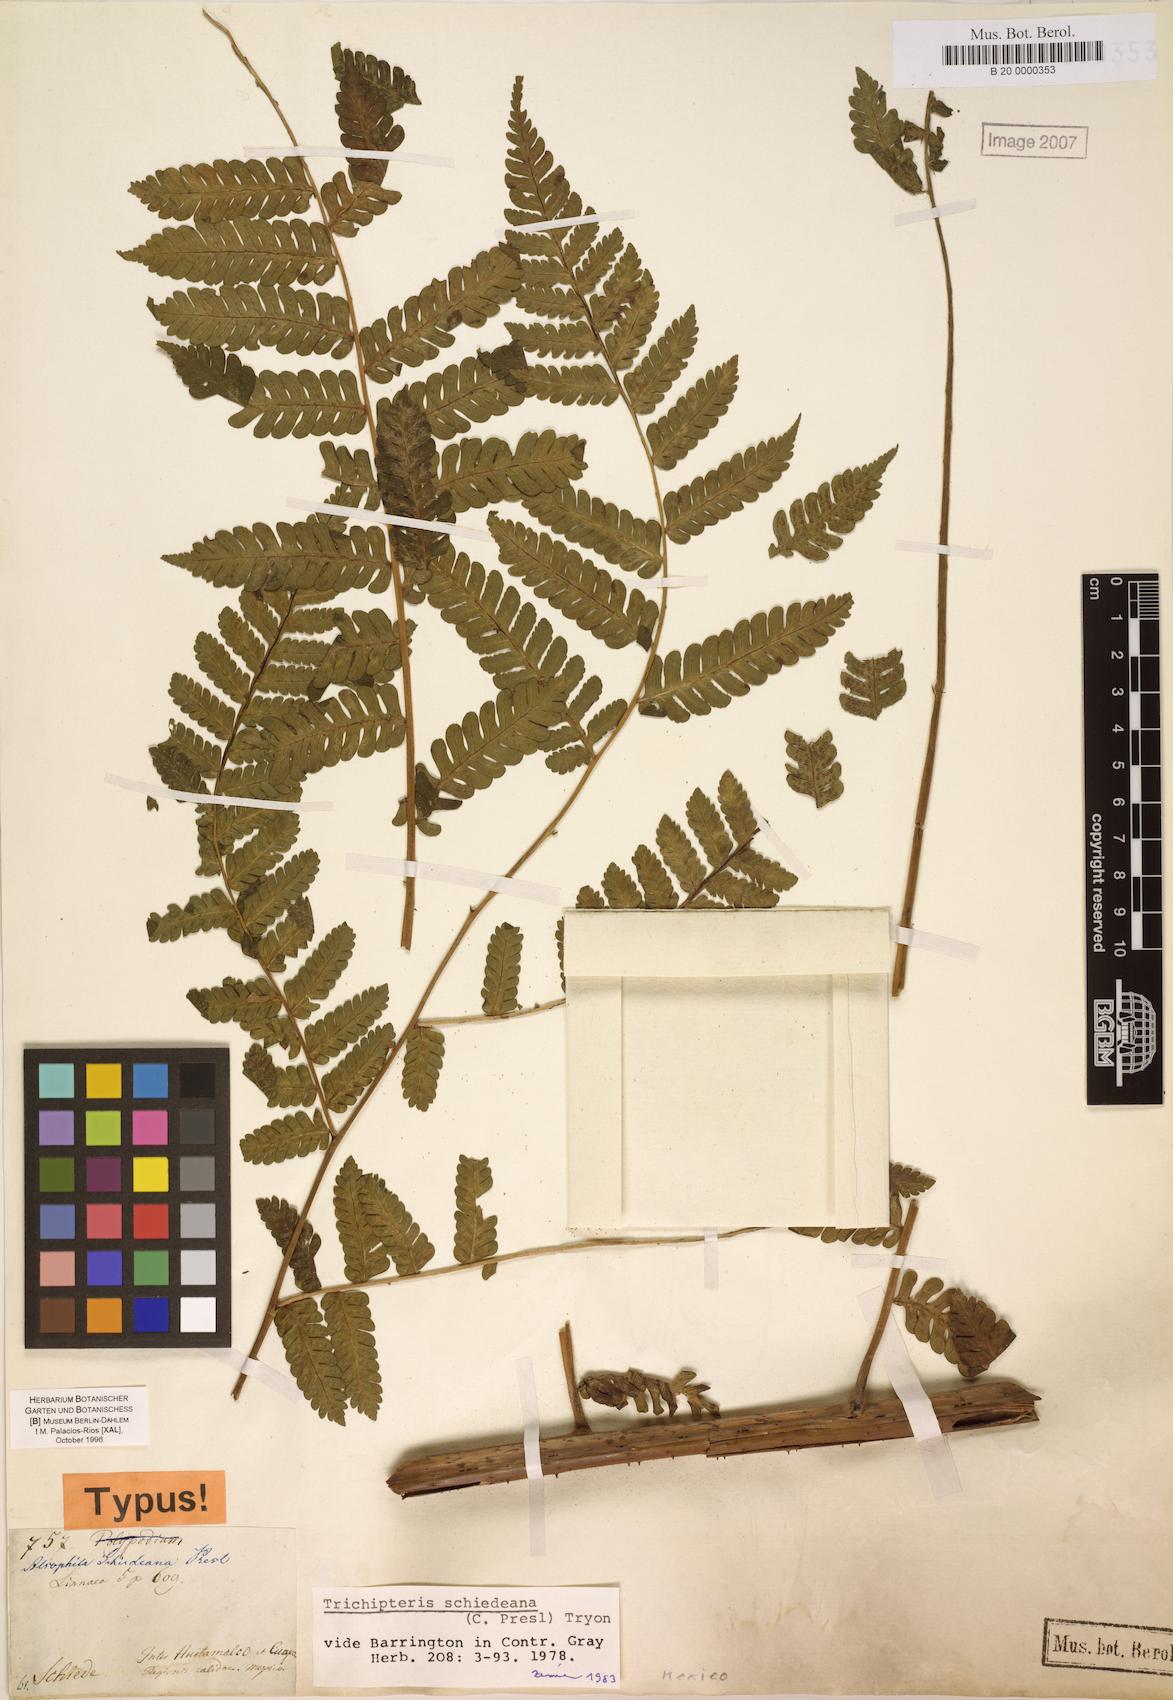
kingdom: Plantae
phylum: Tracheophyta
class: Polypodiopsida
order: Cyatheales
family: Cyatheaceae
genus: Cyathea
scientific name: Cyathea schiedeana
